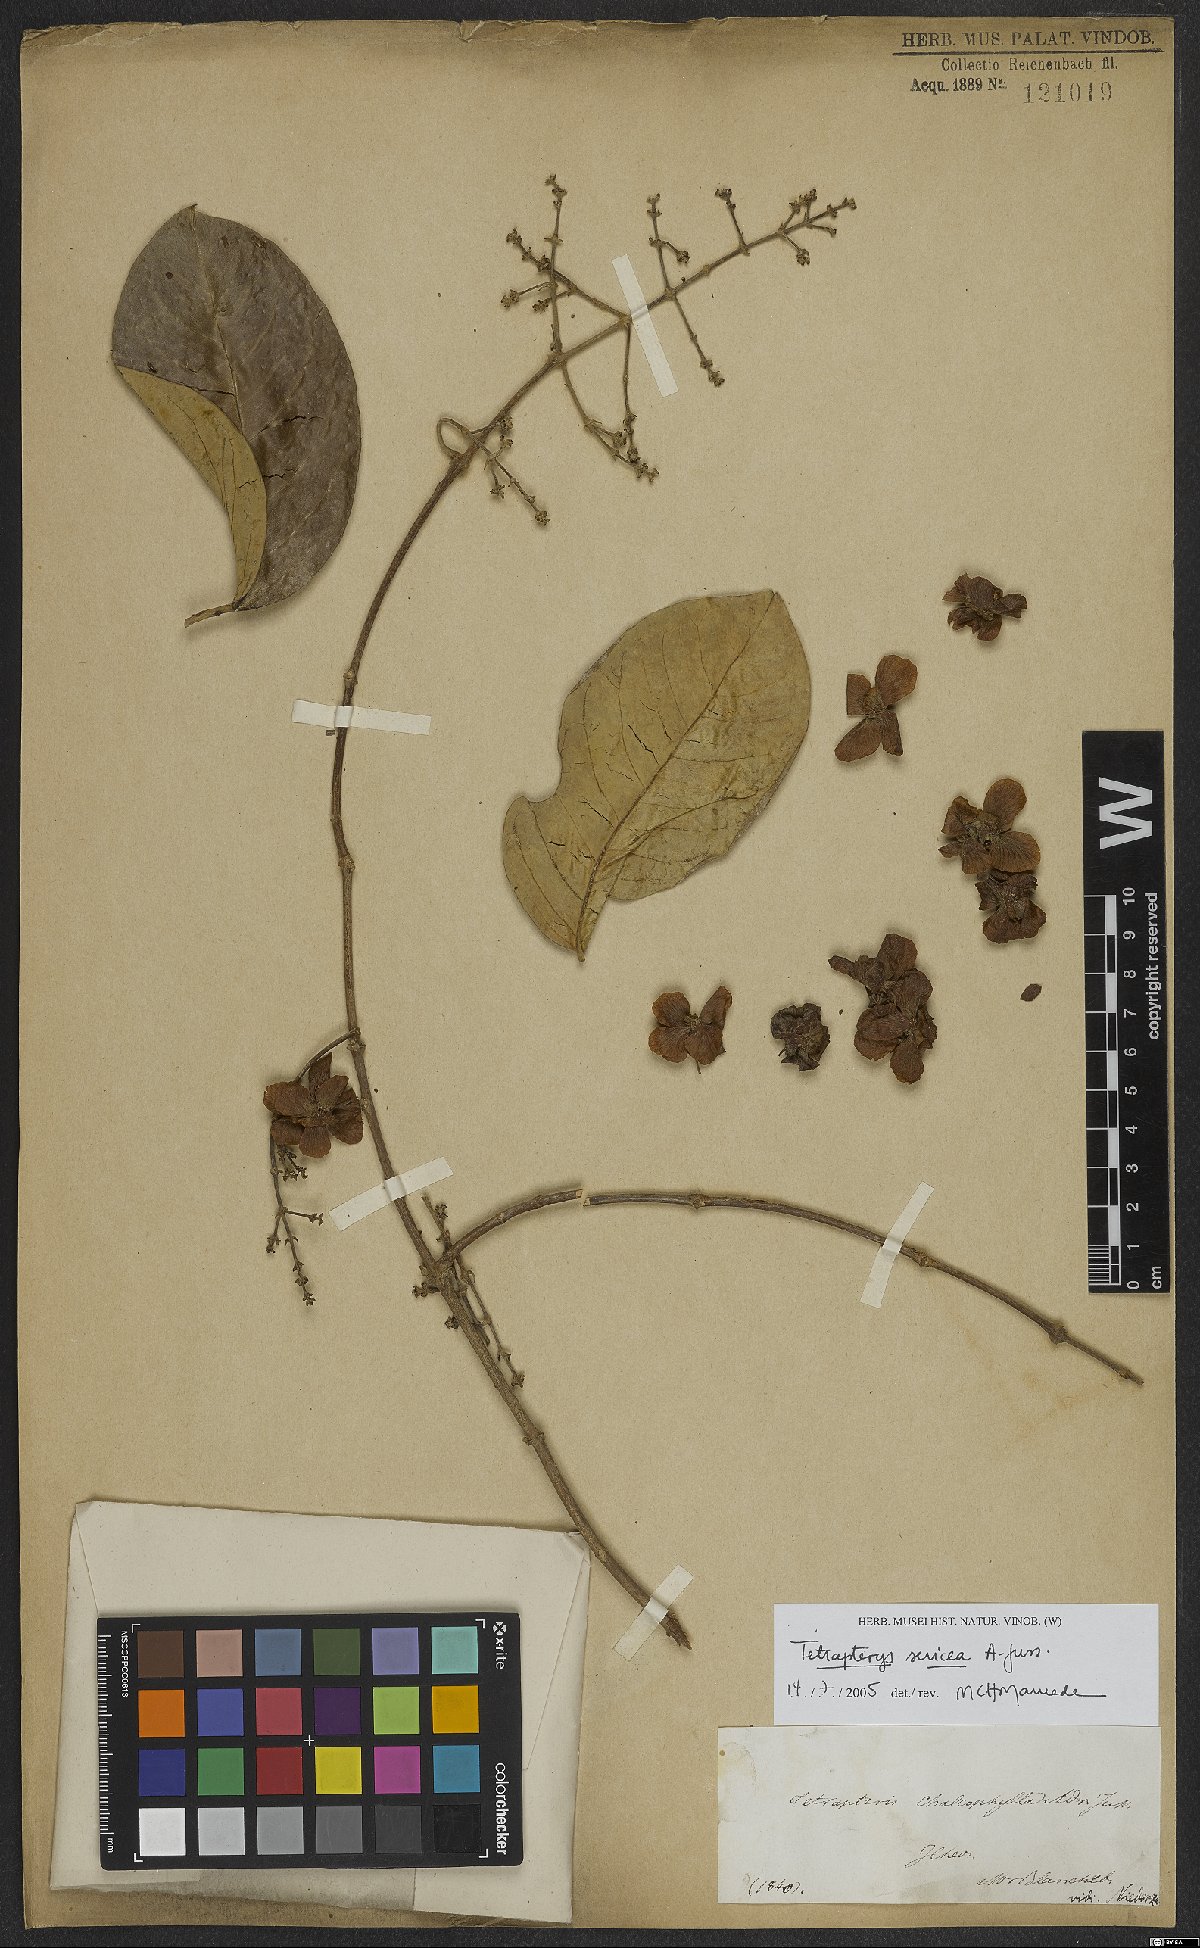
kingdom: Plantae
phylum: Tracheophyta
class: Magnoliopsida
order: Malpighiales
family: Malpighiaceae
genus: Niedenzuella
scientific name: Niedenzuella sericea
